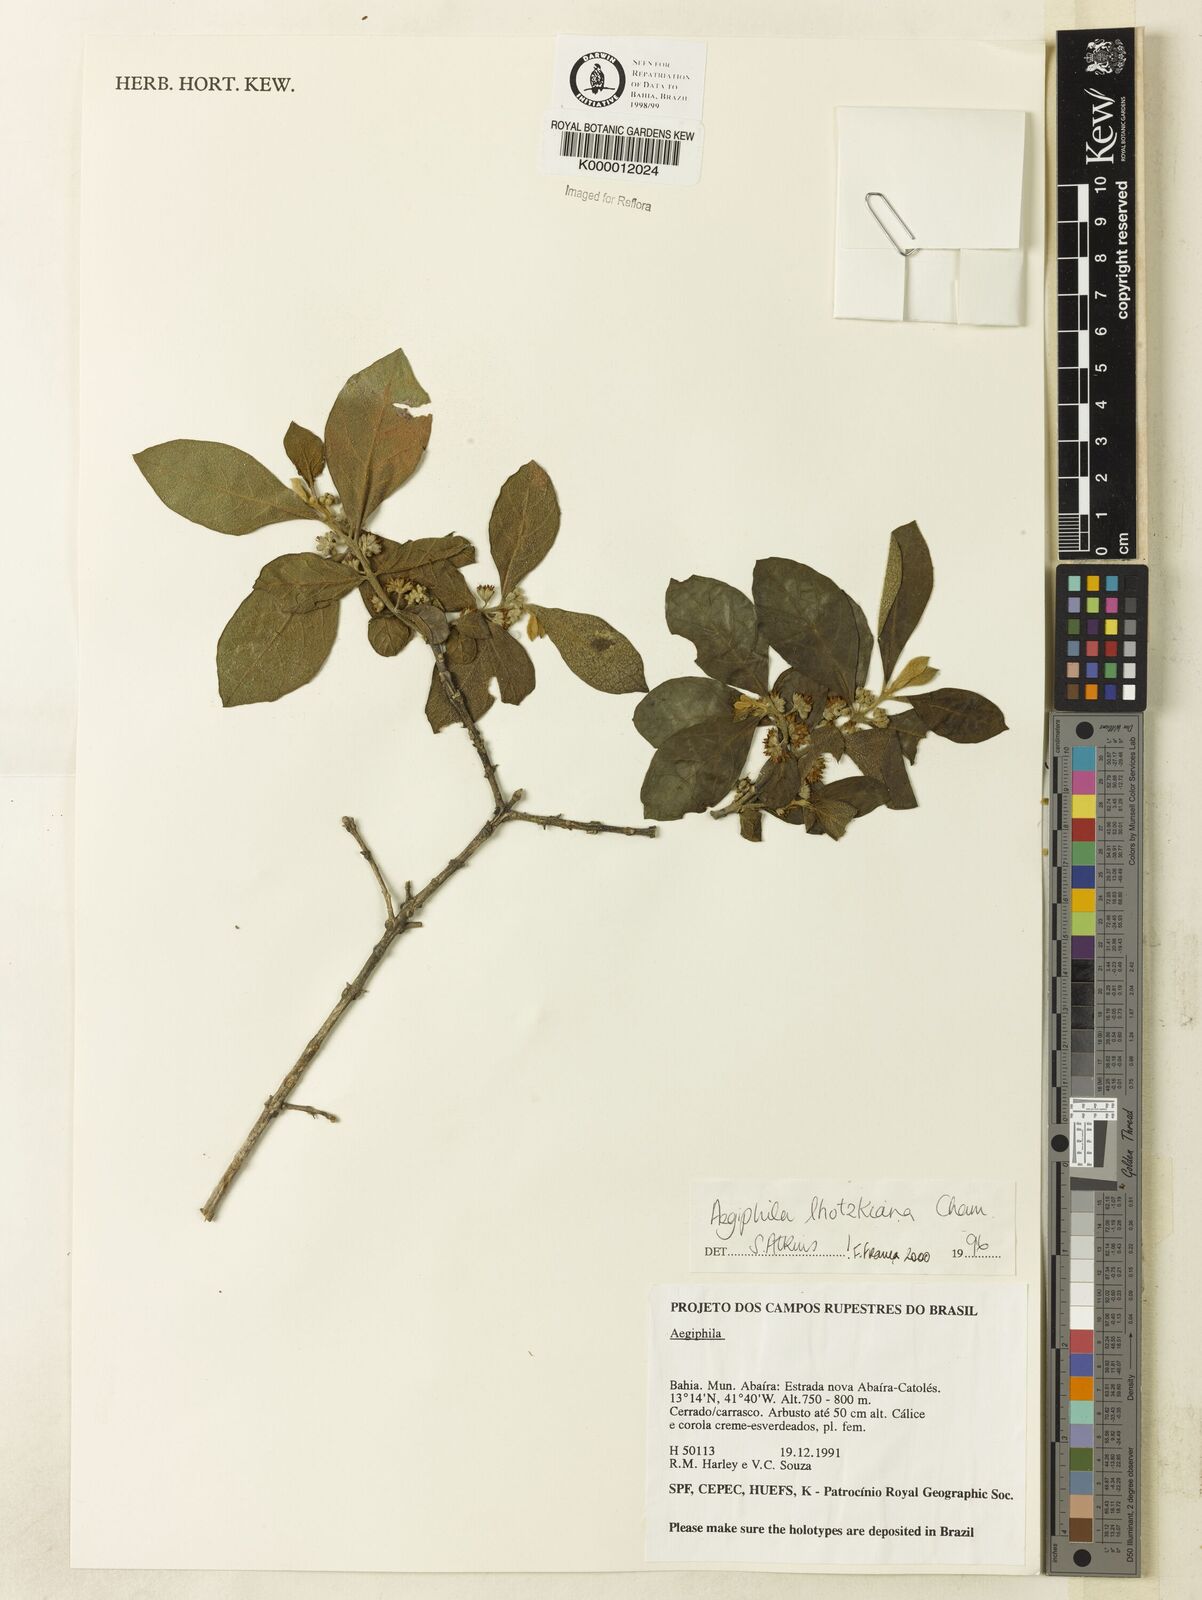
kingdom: Plantae
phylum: Tracheophyta
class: Magnoliopsida
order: Lamiales
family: Lamiaceae
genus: Aegiphila
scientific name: Aegiphila verticillata
